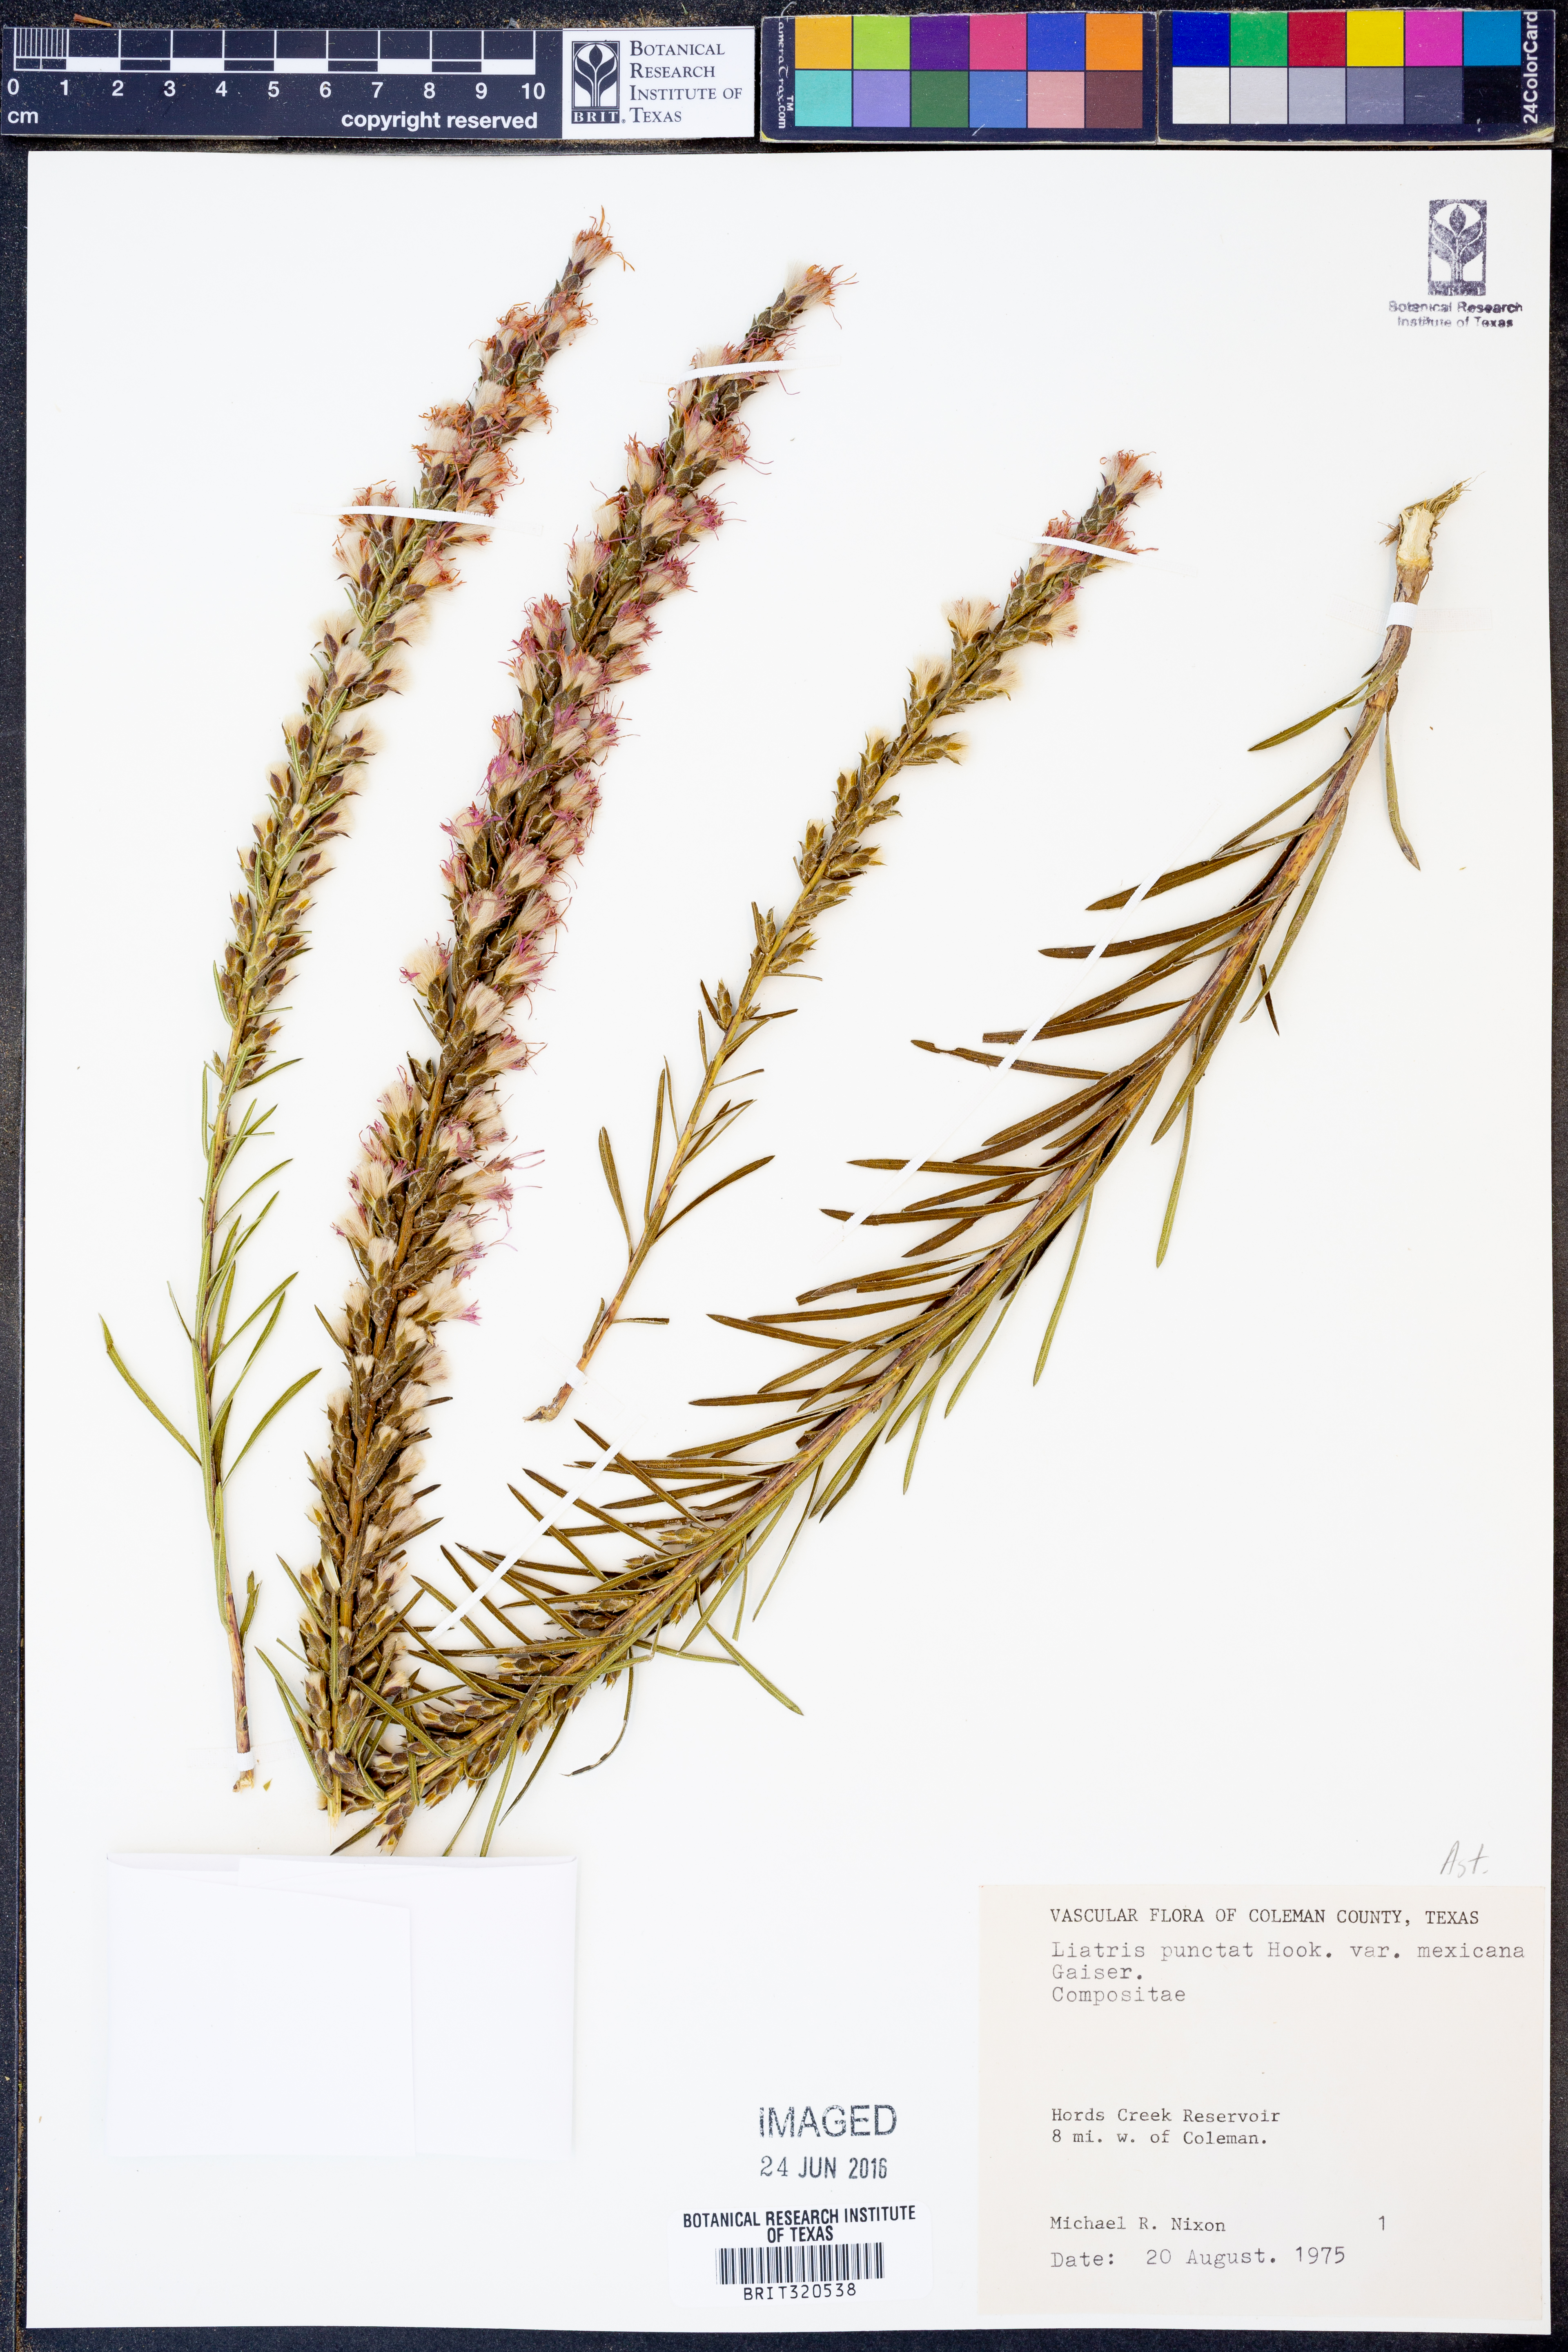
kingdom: Plantae
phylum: Tracheophyta
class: Magnoliopsida
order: Asterales
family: Asteraceae
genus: Liatris
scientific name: Liatris punctata
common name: Dotted gayfeather
